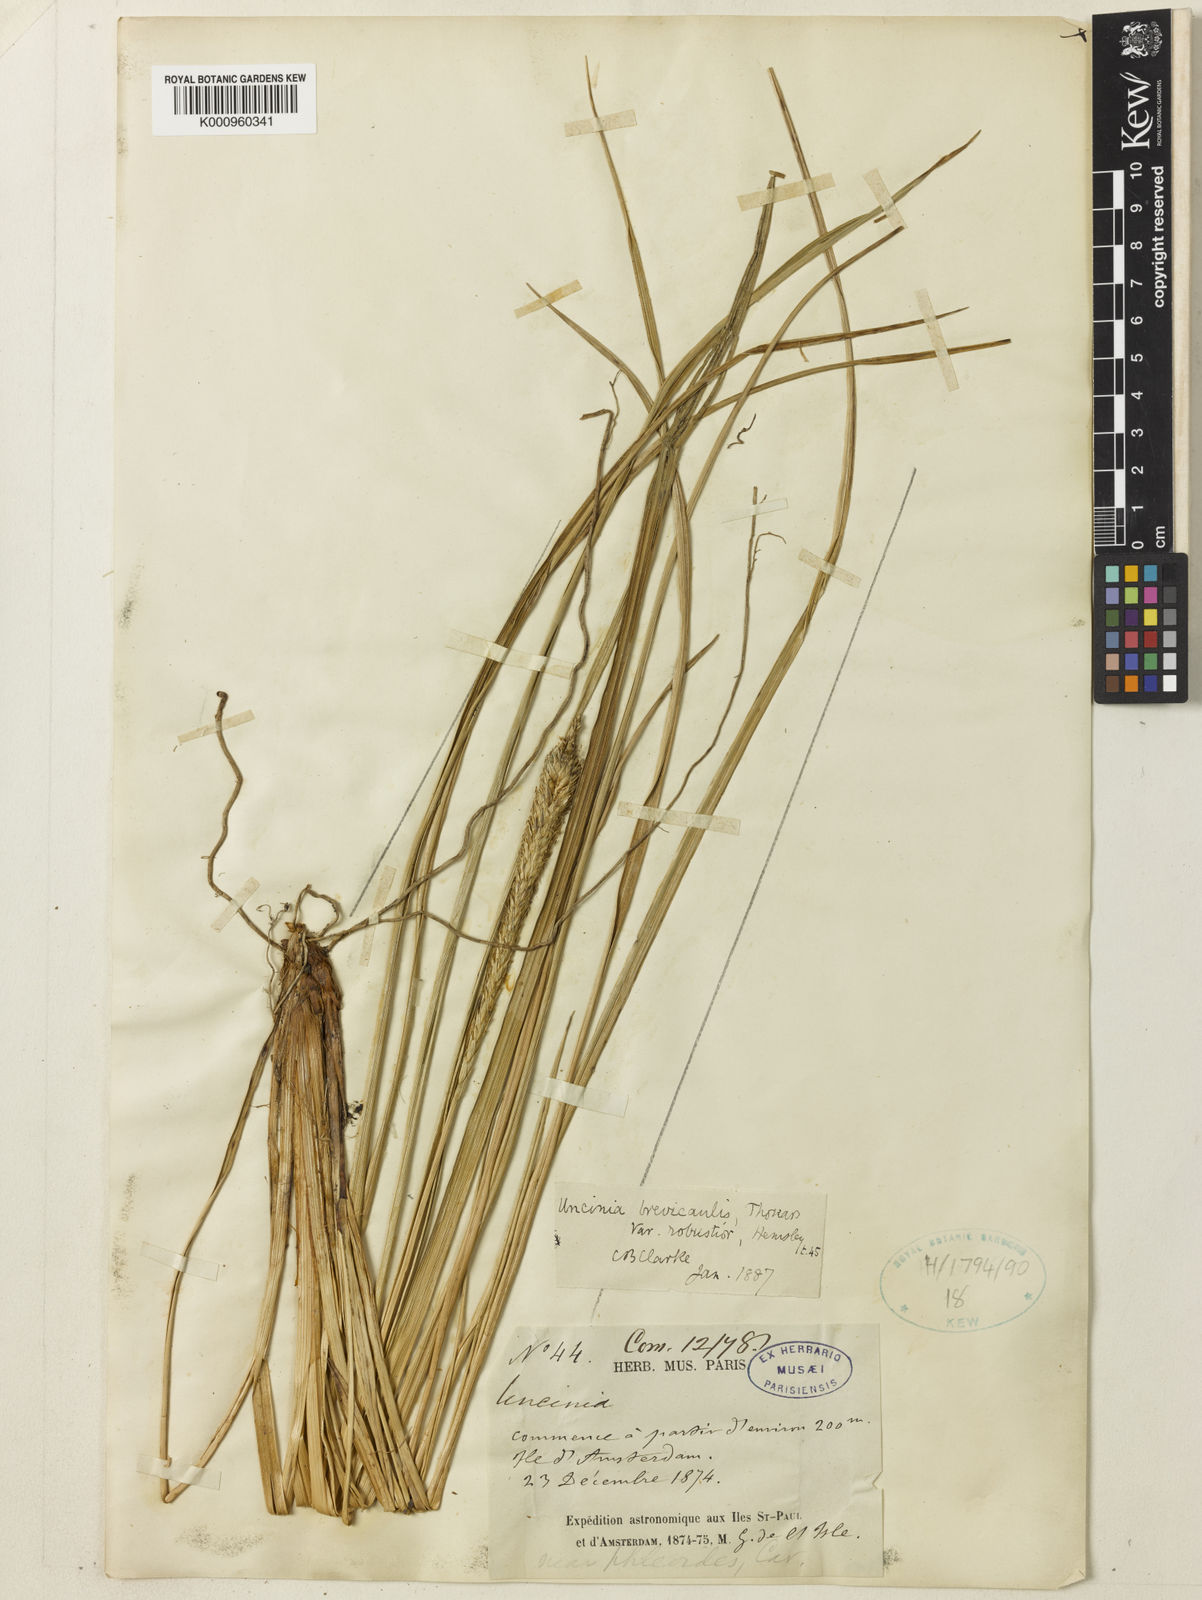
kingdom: Fungi
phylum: Ascomycota
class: Leotiomycetes
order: Helotiales
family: Hamatocanthoscyphaceae
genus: Uncinia
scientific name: Uncinia
